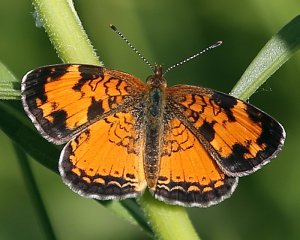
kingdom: Animalia
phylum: Arthropoda
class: Insecta
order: Lepidoptera
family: Nymphalidae
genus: Phyciodes
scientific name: Phyciodes tharos
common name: Northern Crescent
